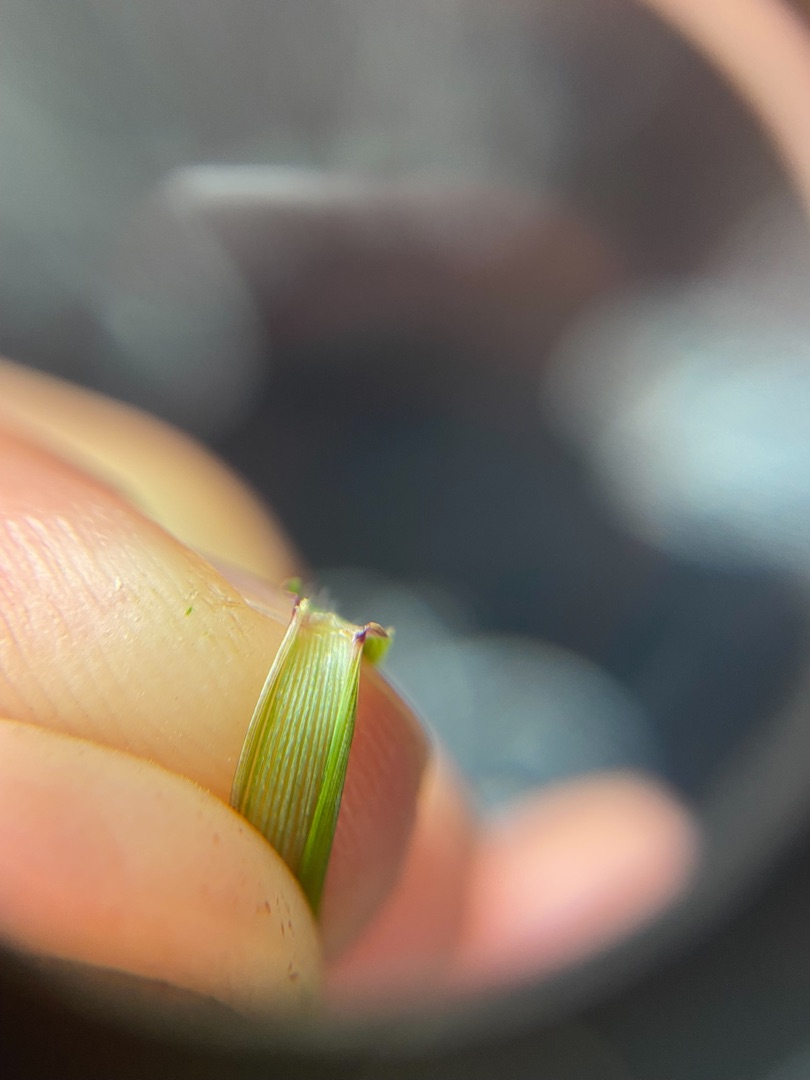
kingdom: Plantae
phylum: Tracheophyta
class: Liliopsida
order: Poales
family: Poaceae
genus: Elymus
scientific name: Elymus repens
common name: Almindelig kvik
